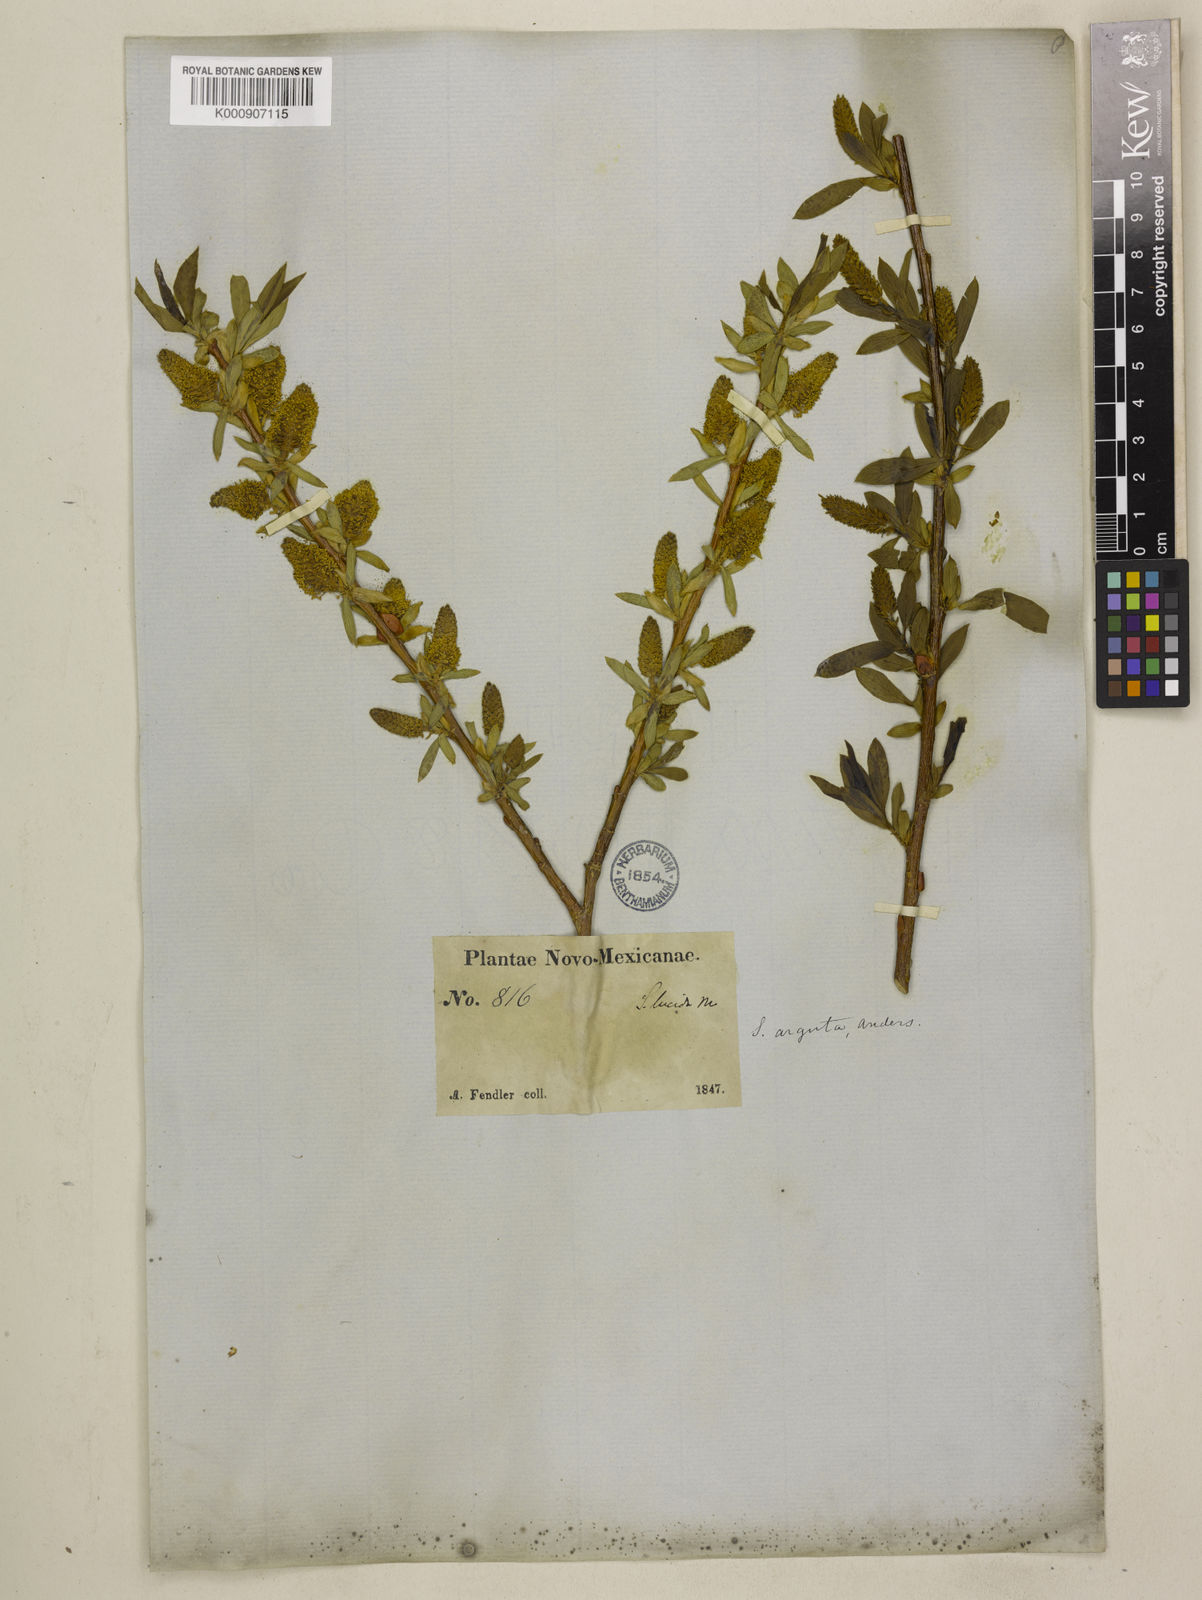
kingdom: Plantae
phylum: Tracheophyta
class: Magnoliopsida
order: Malpighiales
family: Salicaceae
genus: Salix
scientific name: Salix
